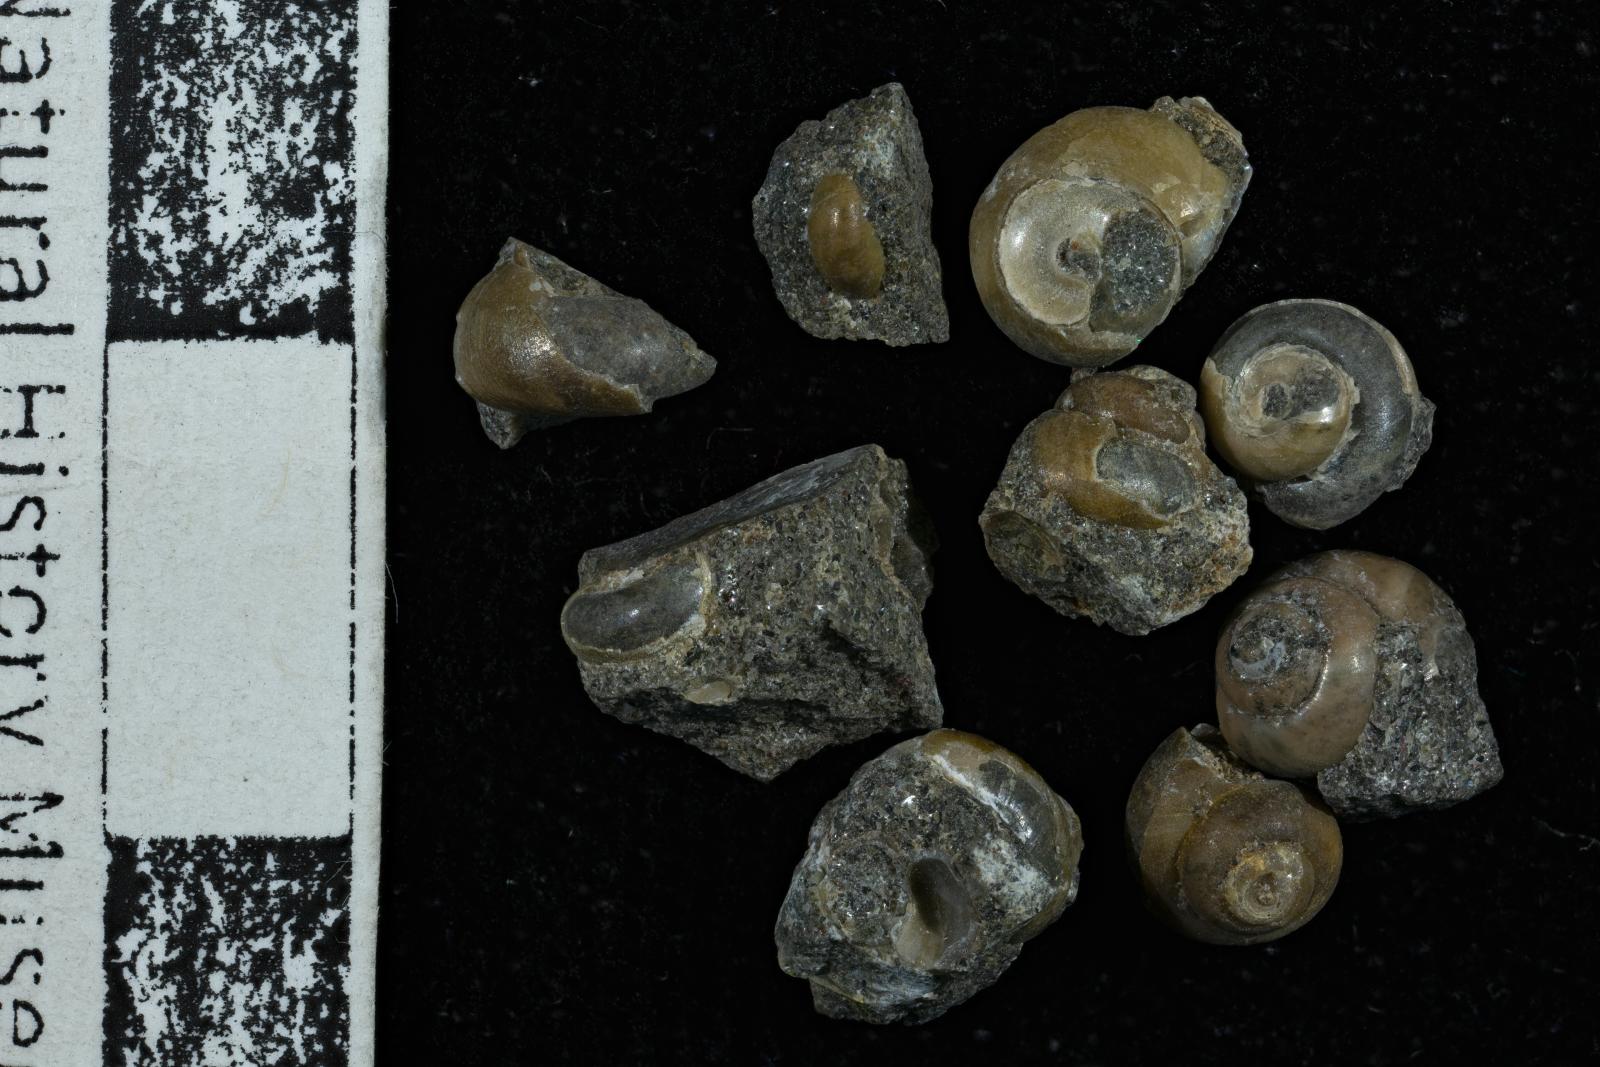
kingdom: Animalia
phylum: Mollusca
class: Gastropoda
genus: Antillocollonia
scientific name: Antillocollonia
